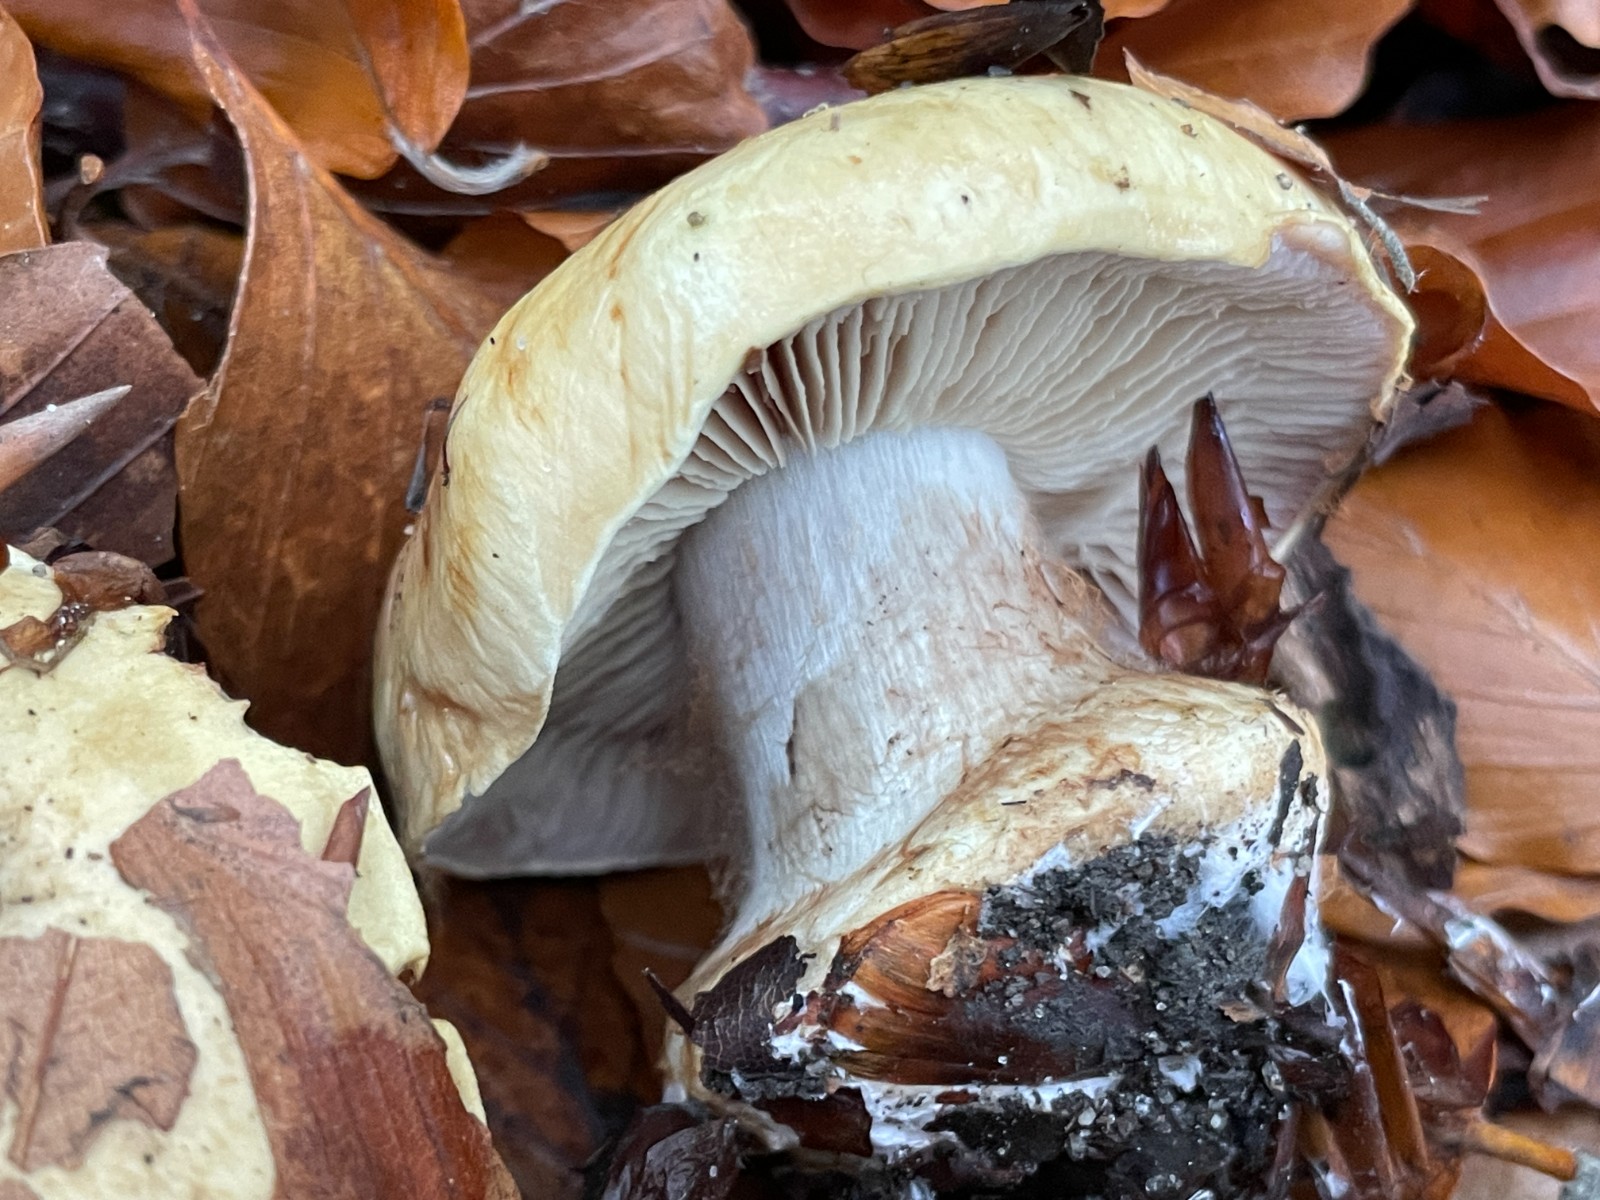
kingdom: Fungi
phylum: Basidiomycota
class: Agaricomycetes
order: Agaricales
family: Cortinariaceae
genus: Calonarius
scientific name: Calonarius
